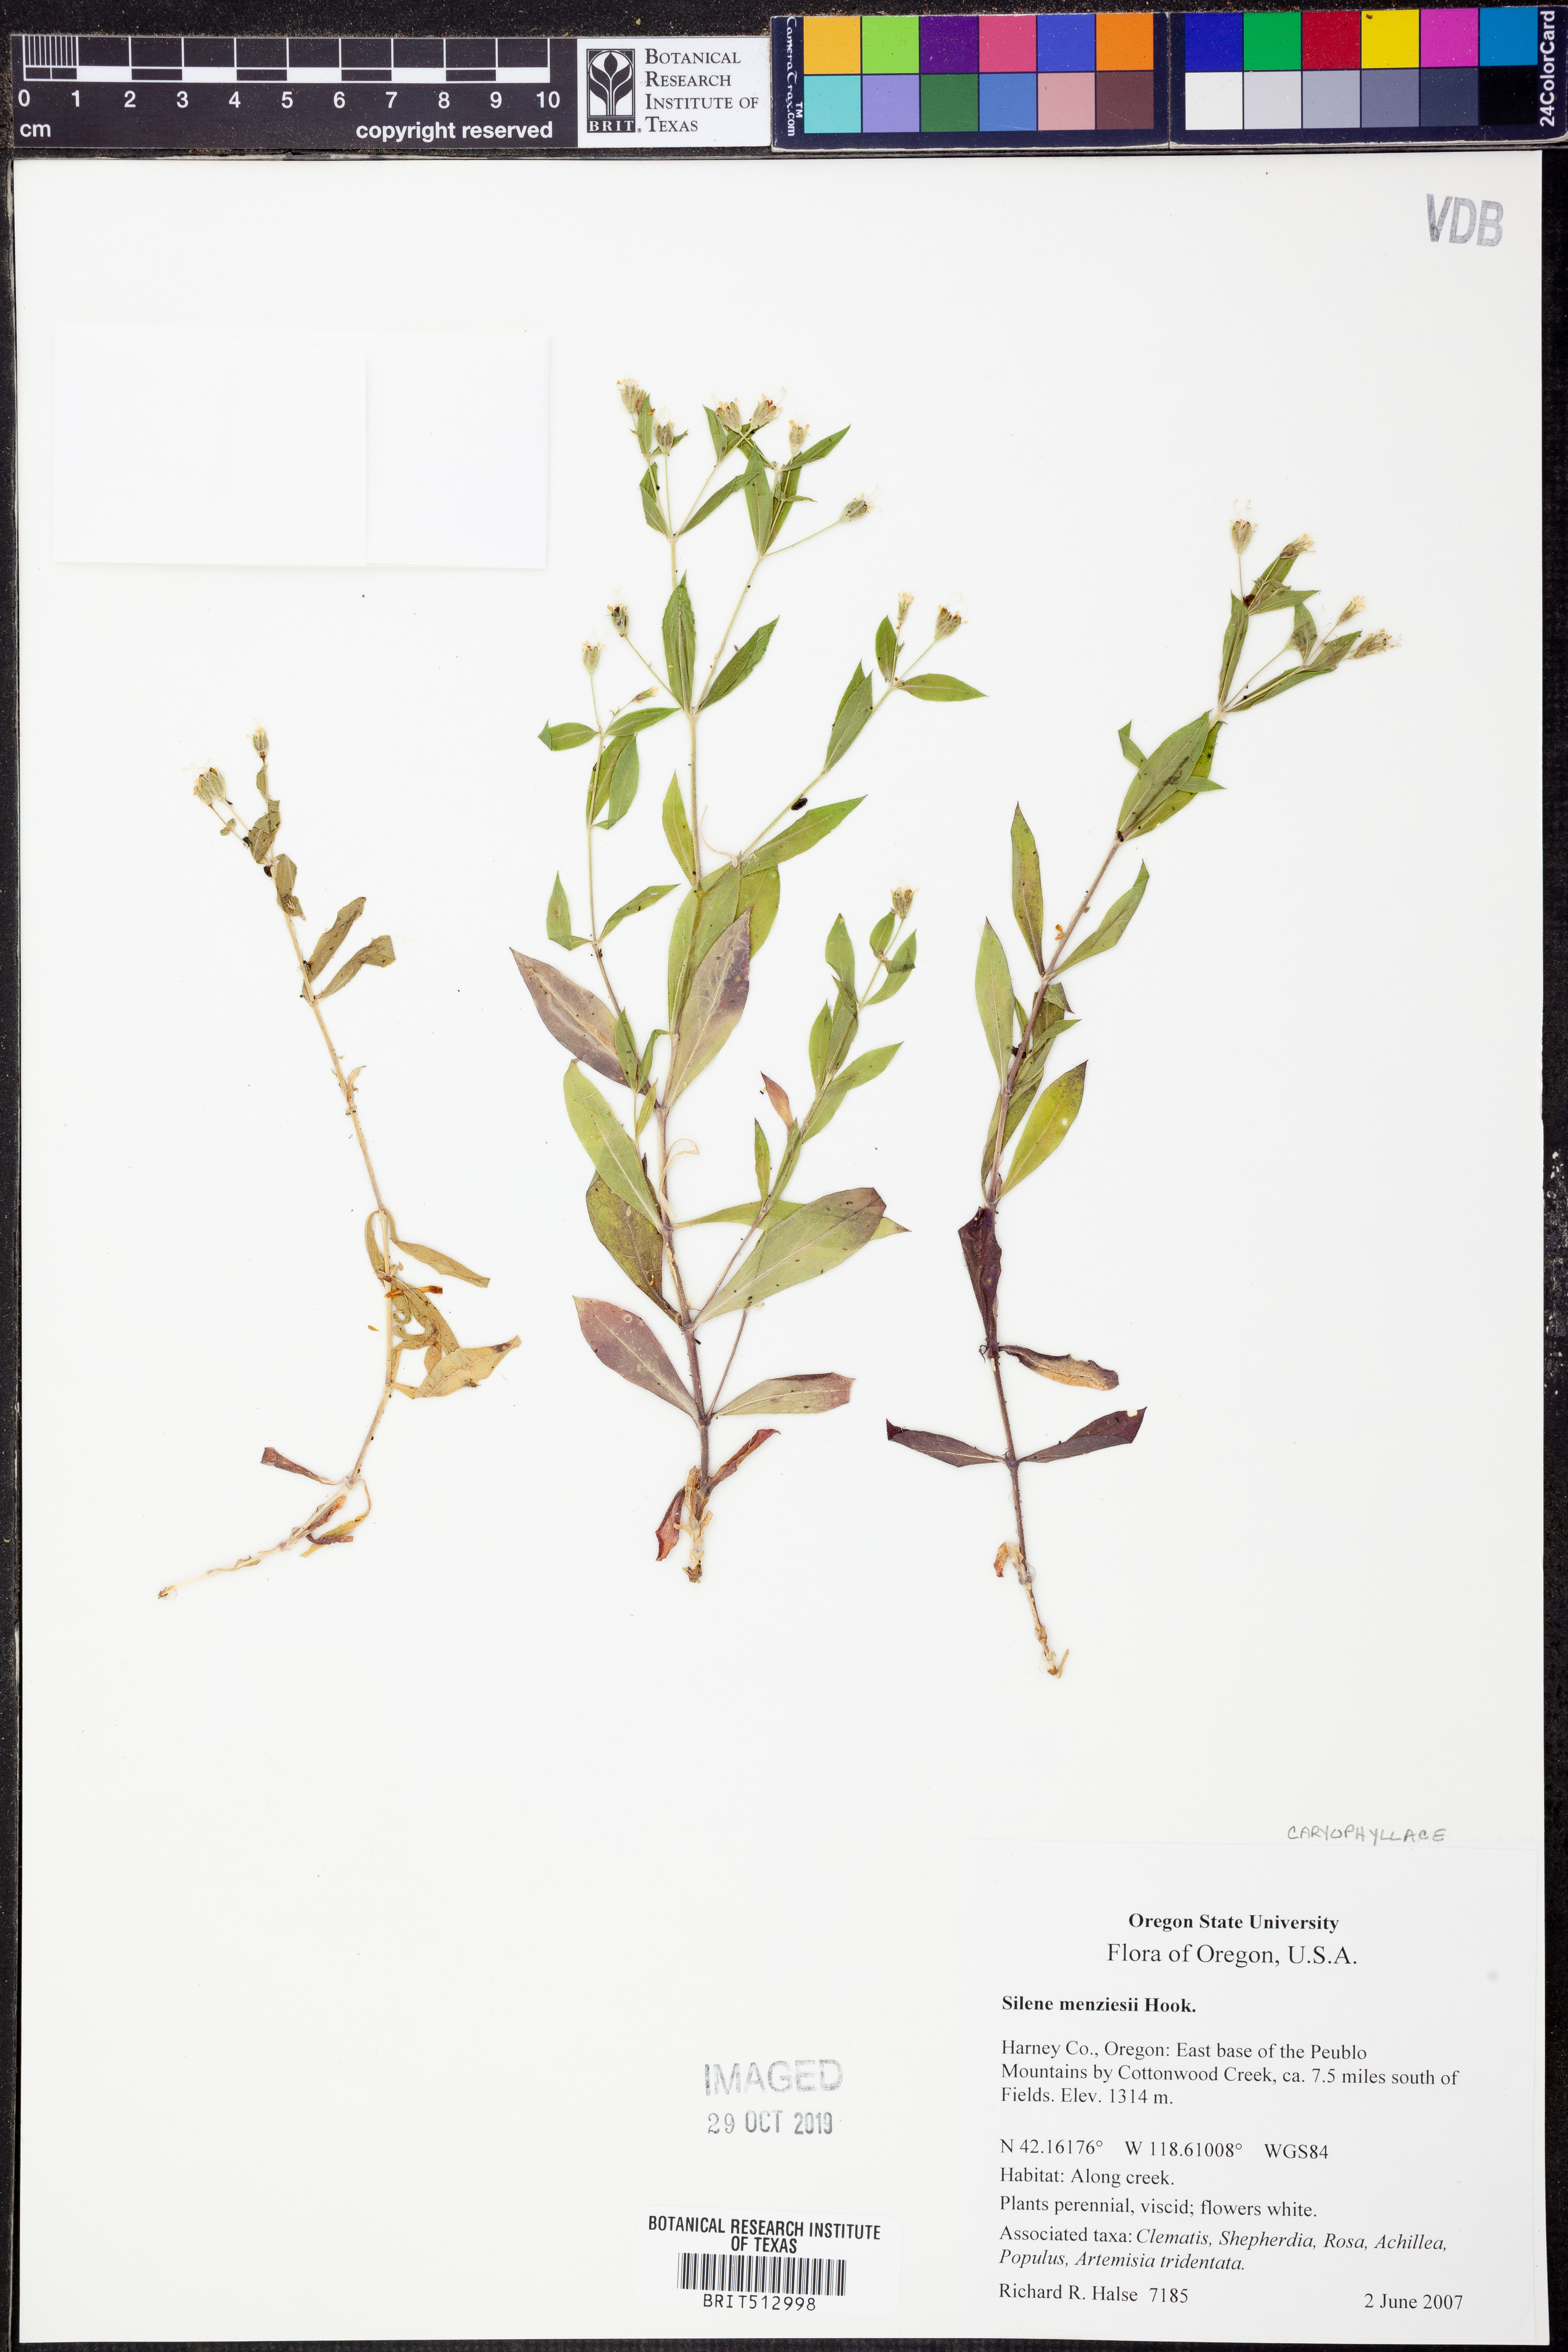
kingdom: Plantae
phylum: Tracheophyta
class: Magnoliopsida
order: Caryophyllales
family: Caryophyllaceae
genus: Silene
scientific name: Silene menziesii
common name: Menzies's catchfly
